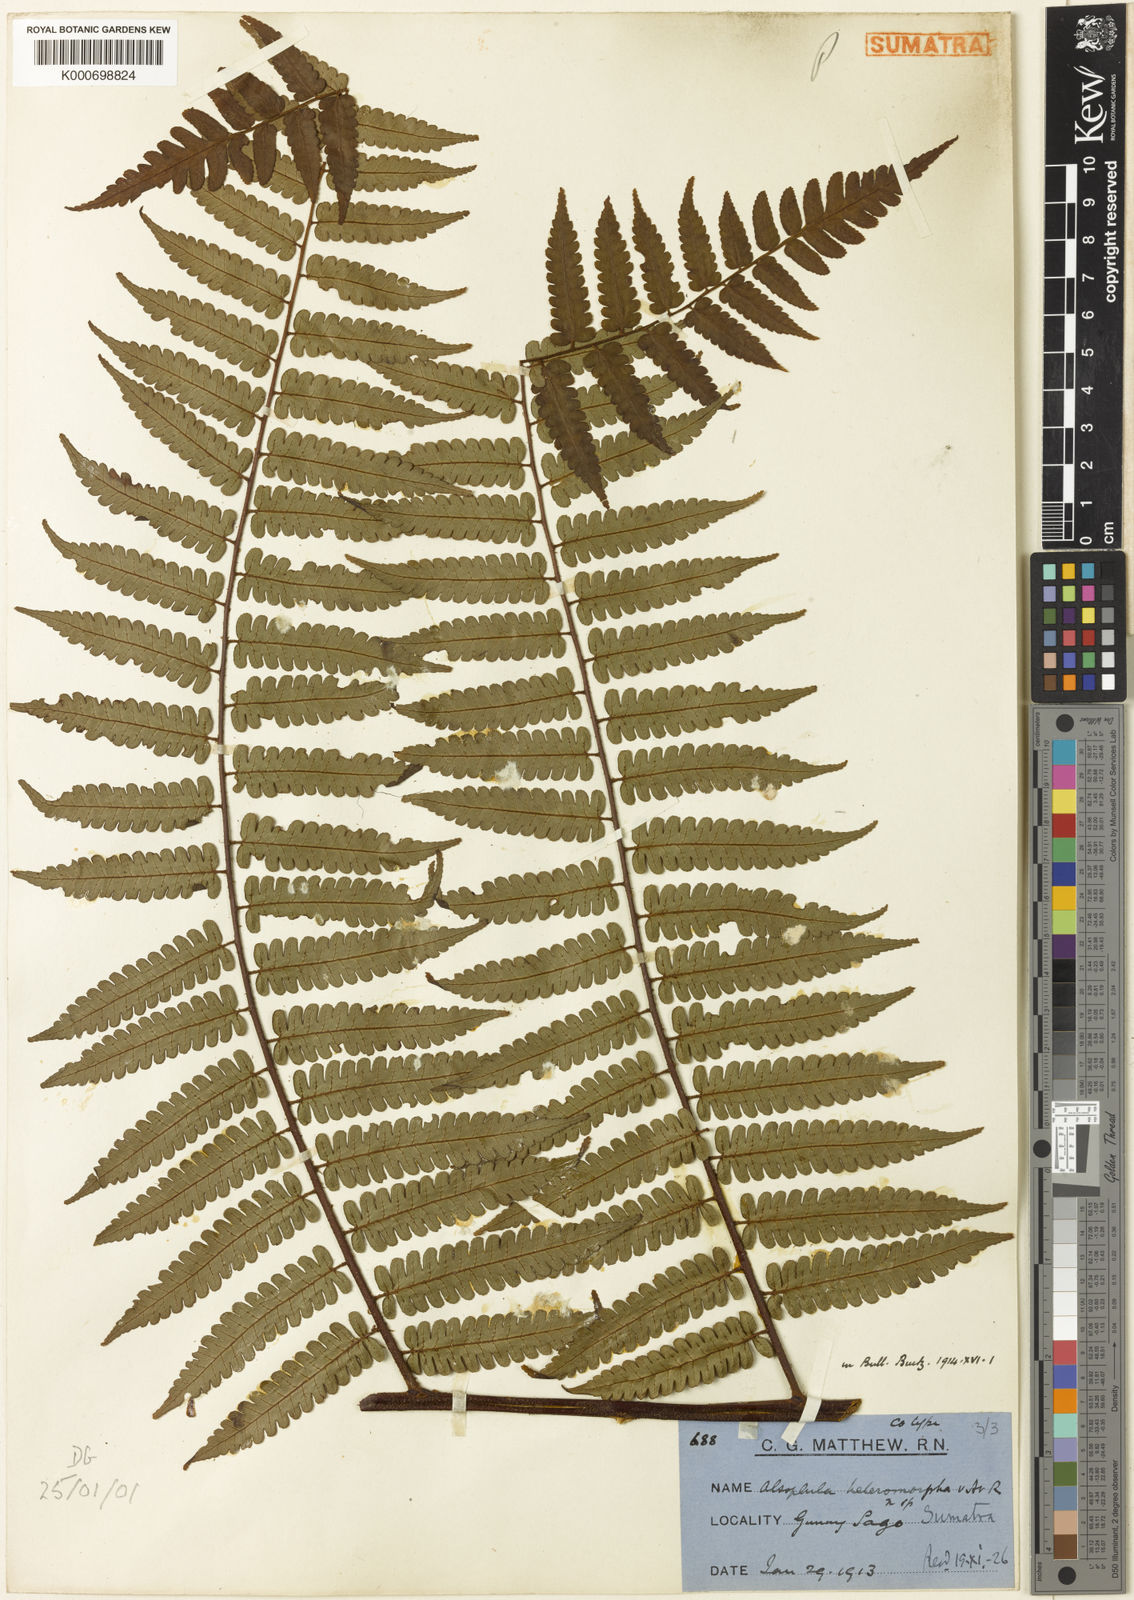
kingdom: Plantae
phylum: Tracheophyta
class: Polypodiopsida
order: Cyatheales
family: Cyatheaceae
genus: Gymnosphaera
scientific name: Gymnosphaera commutata
